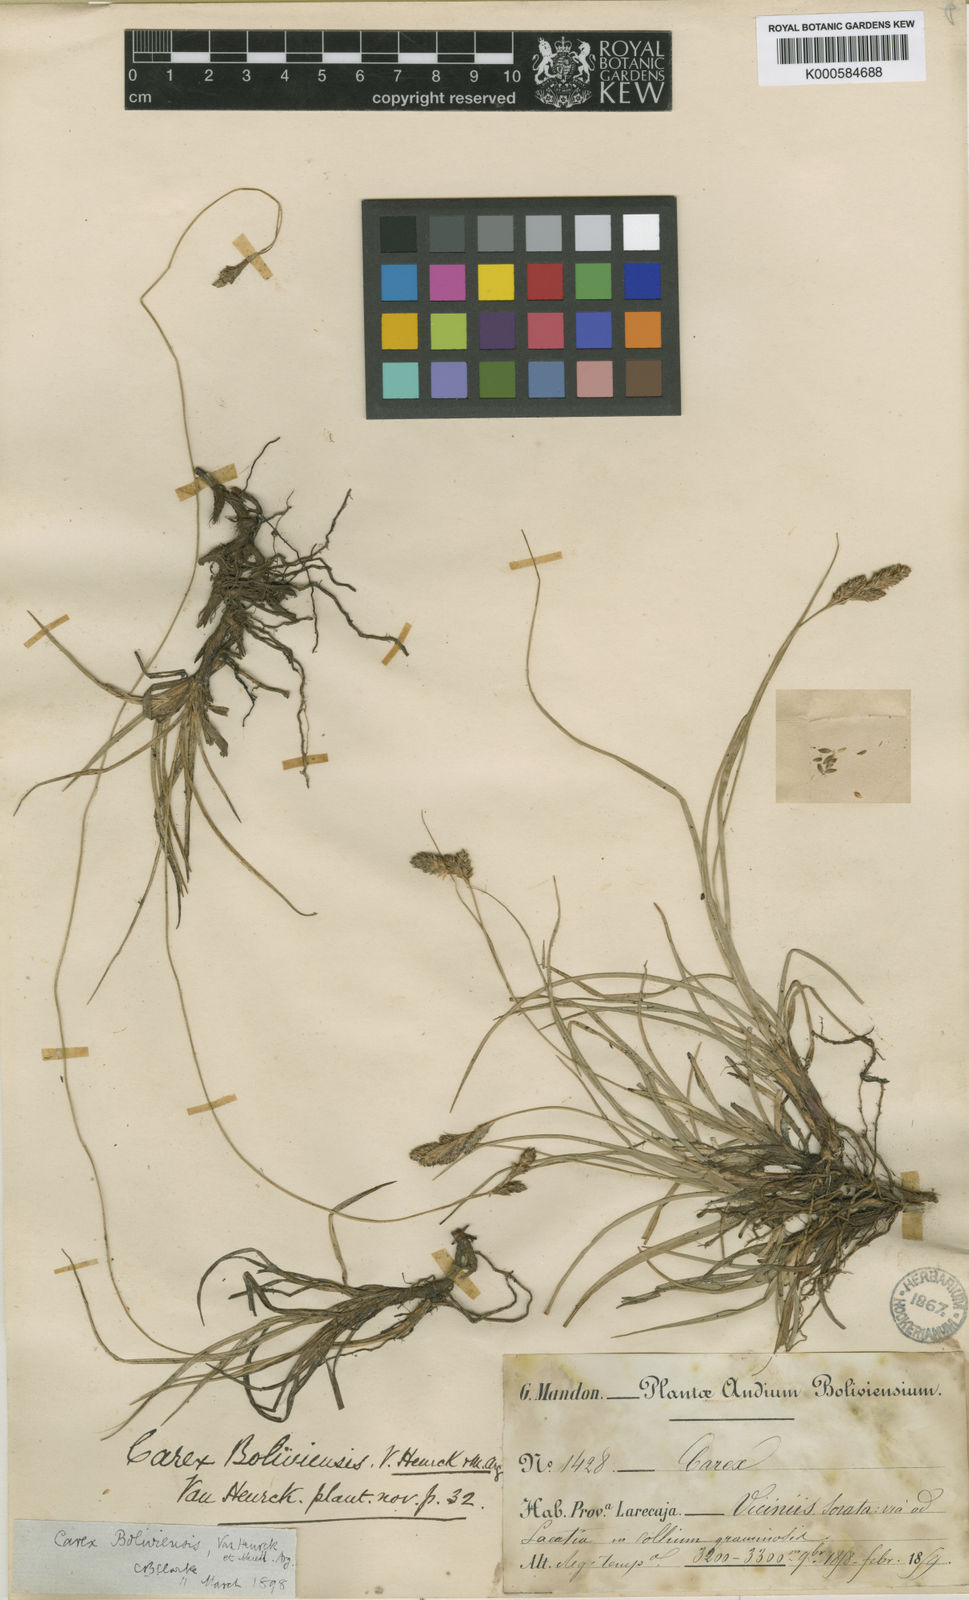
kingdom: Plantae
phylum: Tracheophyta
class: Liliopsida
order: Poales
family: Cyperaceae
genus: Carex
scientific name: Carex
